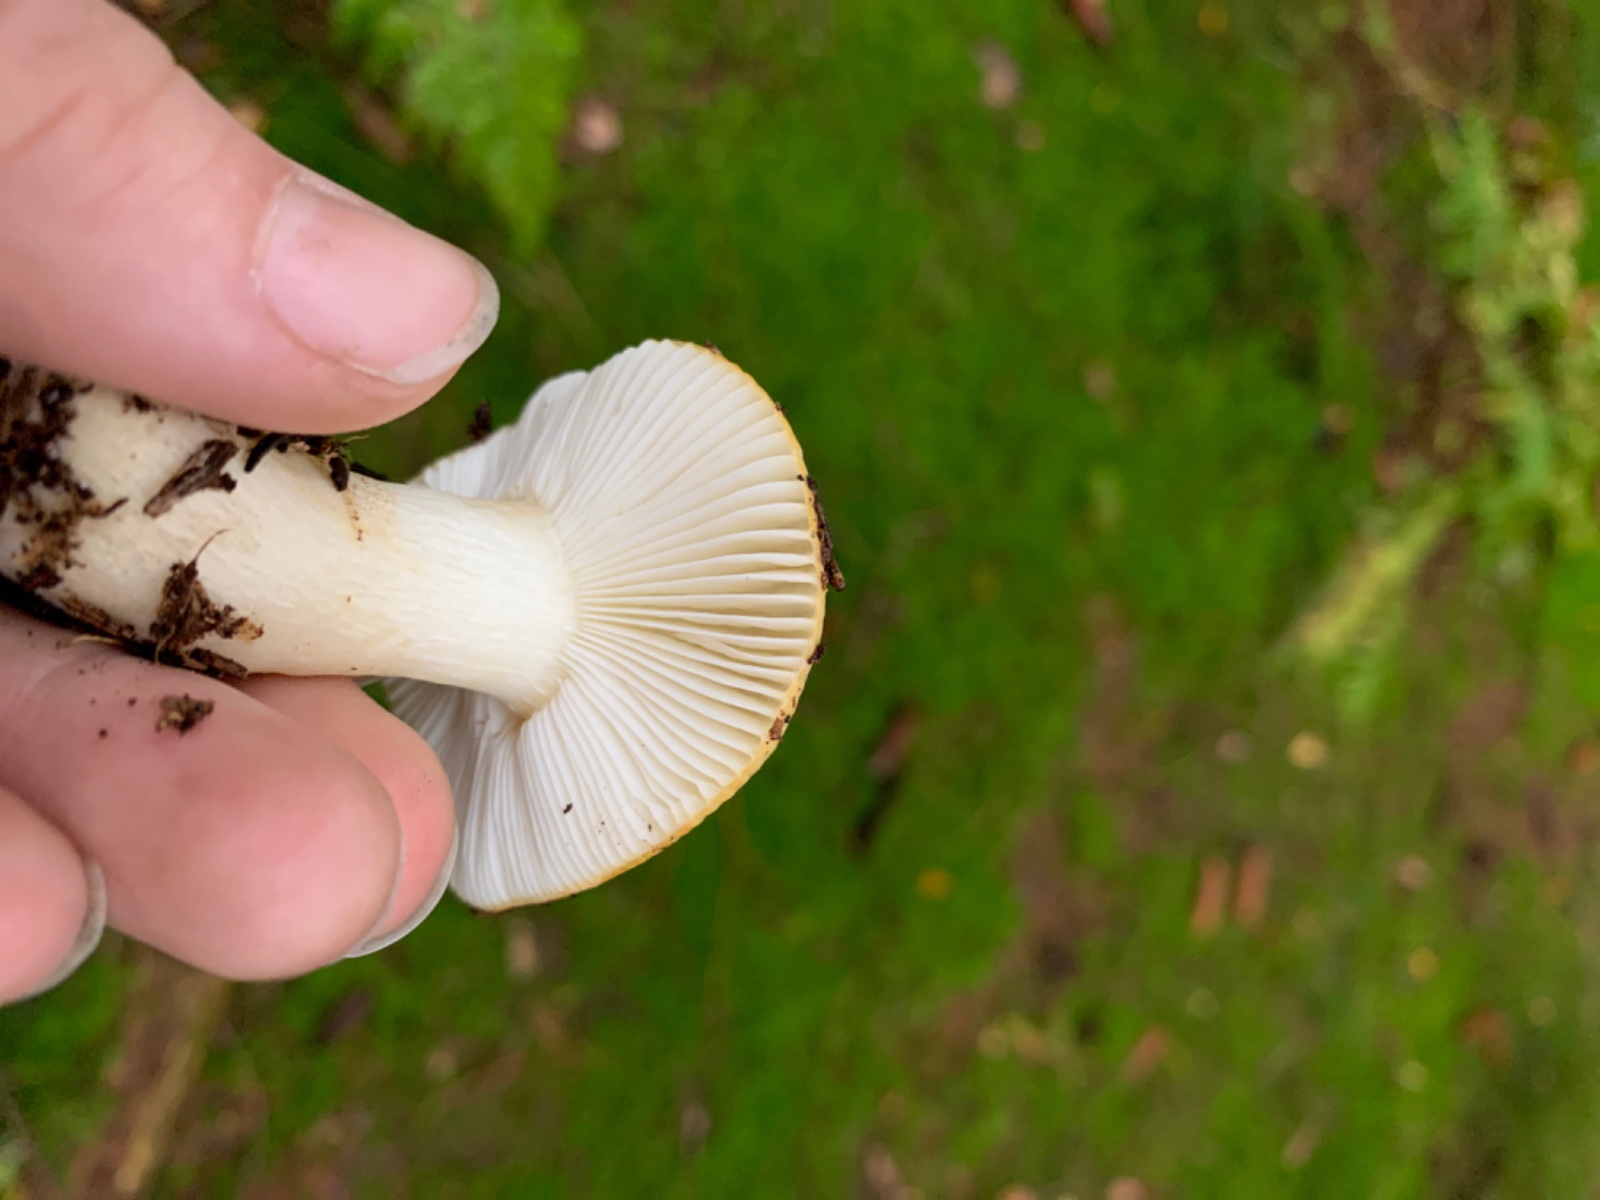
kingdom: Fungi
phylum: Basidiomycota
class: Agaricomycetes
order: Russulales
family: Russulaceae
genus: Russula
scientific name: Russula ochroleuca
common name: okkergul skørhat
